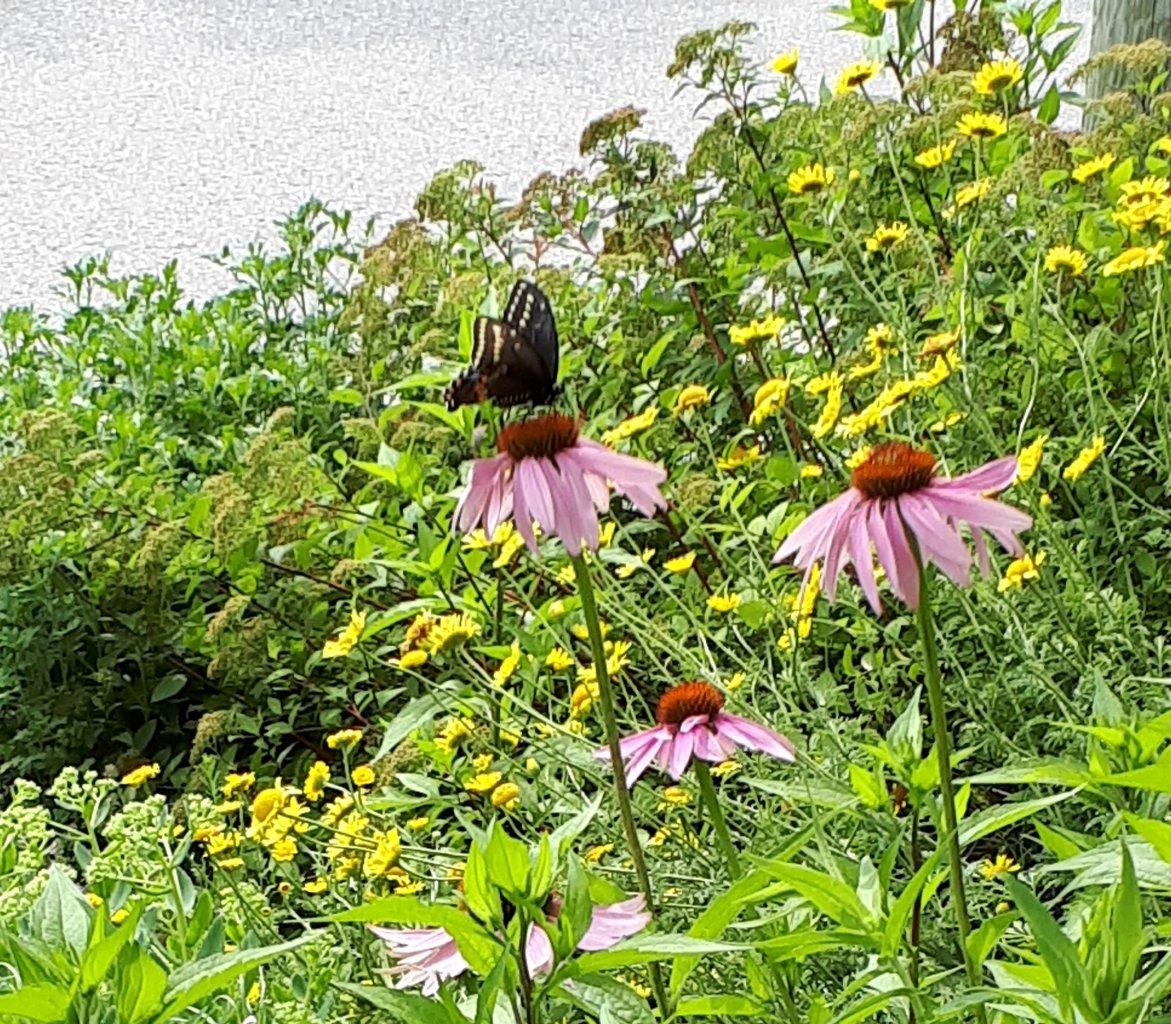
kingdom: Animalia
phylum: Arthropoda
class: Insecta
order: Lepidoptera
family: Papilionidae
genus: Papilio
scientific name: Papilio polyxenes
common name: Black Swallowtail
